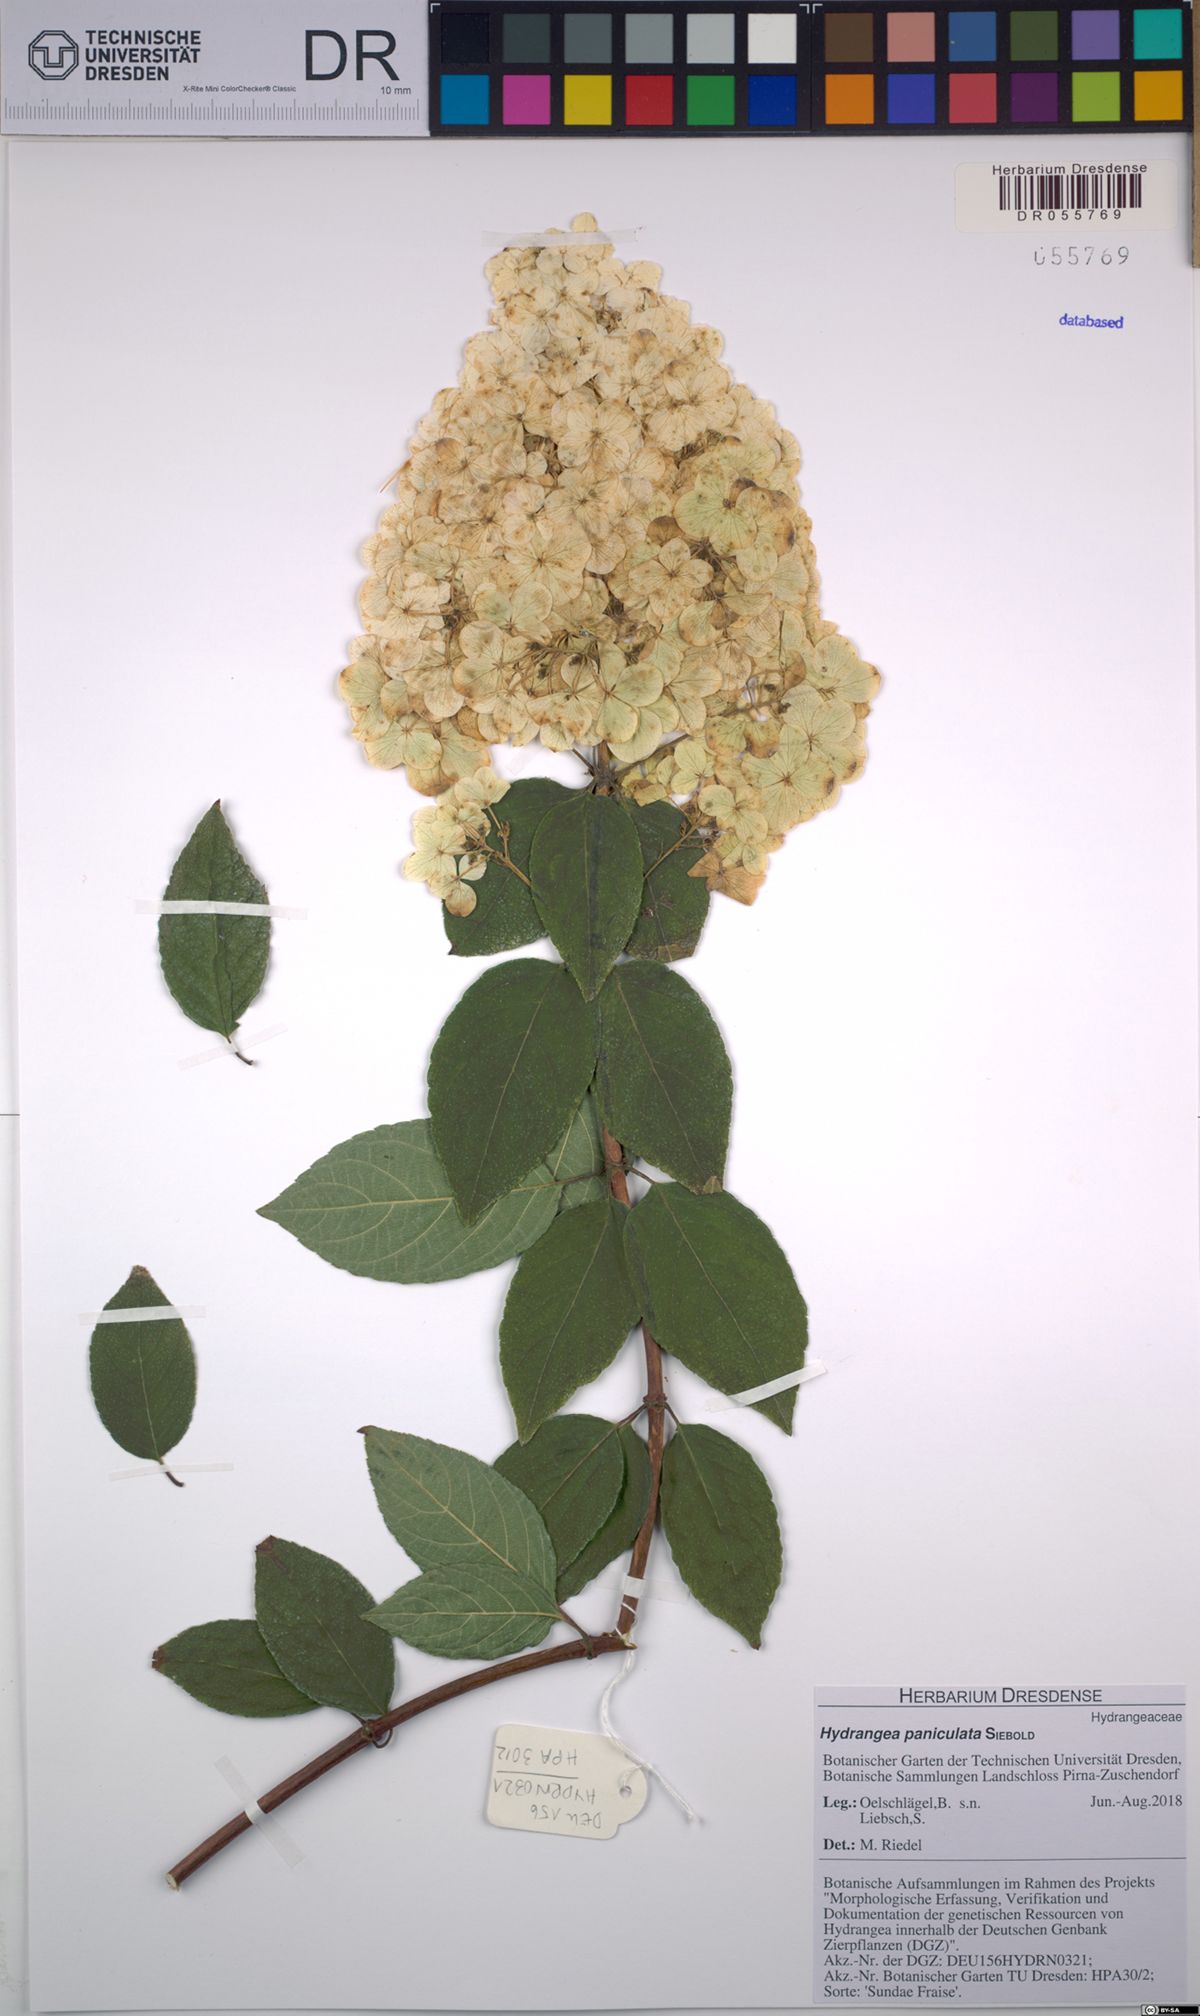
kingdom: Plantae
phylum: Tracheophyta
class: Magnoliopsida
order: Cornales
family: Hydrangeaceae
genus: Hydrangea
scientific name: Hydrangea paniculata
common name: Panicled hydrangea
